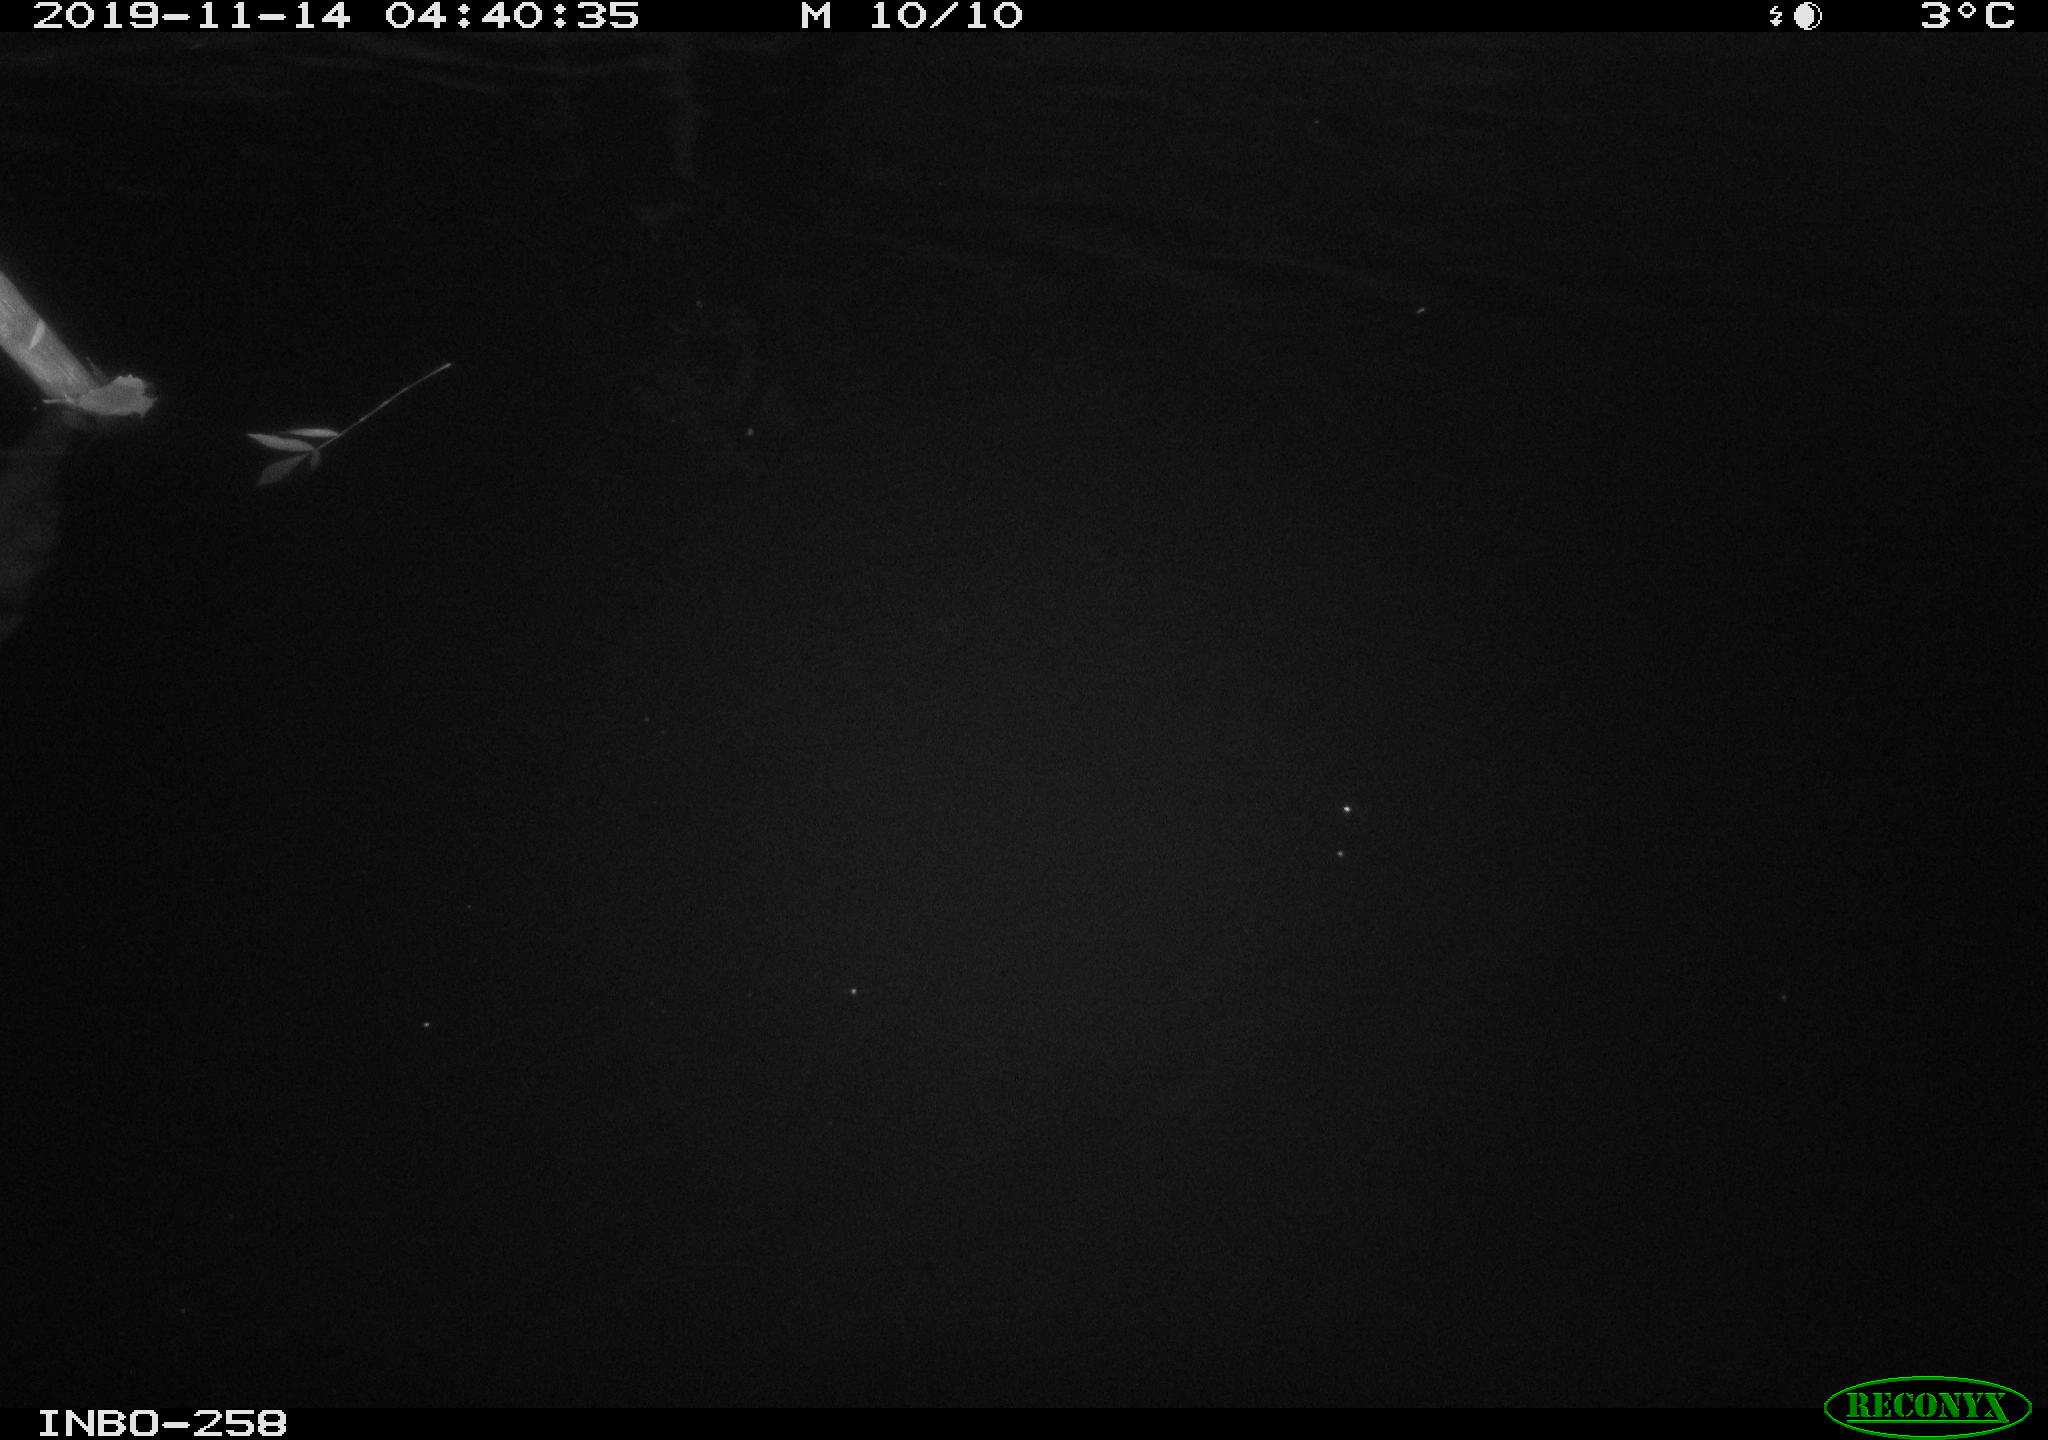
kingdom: Animalia
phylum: Chordata
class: Aves
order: Anseriformes
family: Anatidae
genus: Anas
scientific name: Anas platyrhynchos
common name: Mallard
